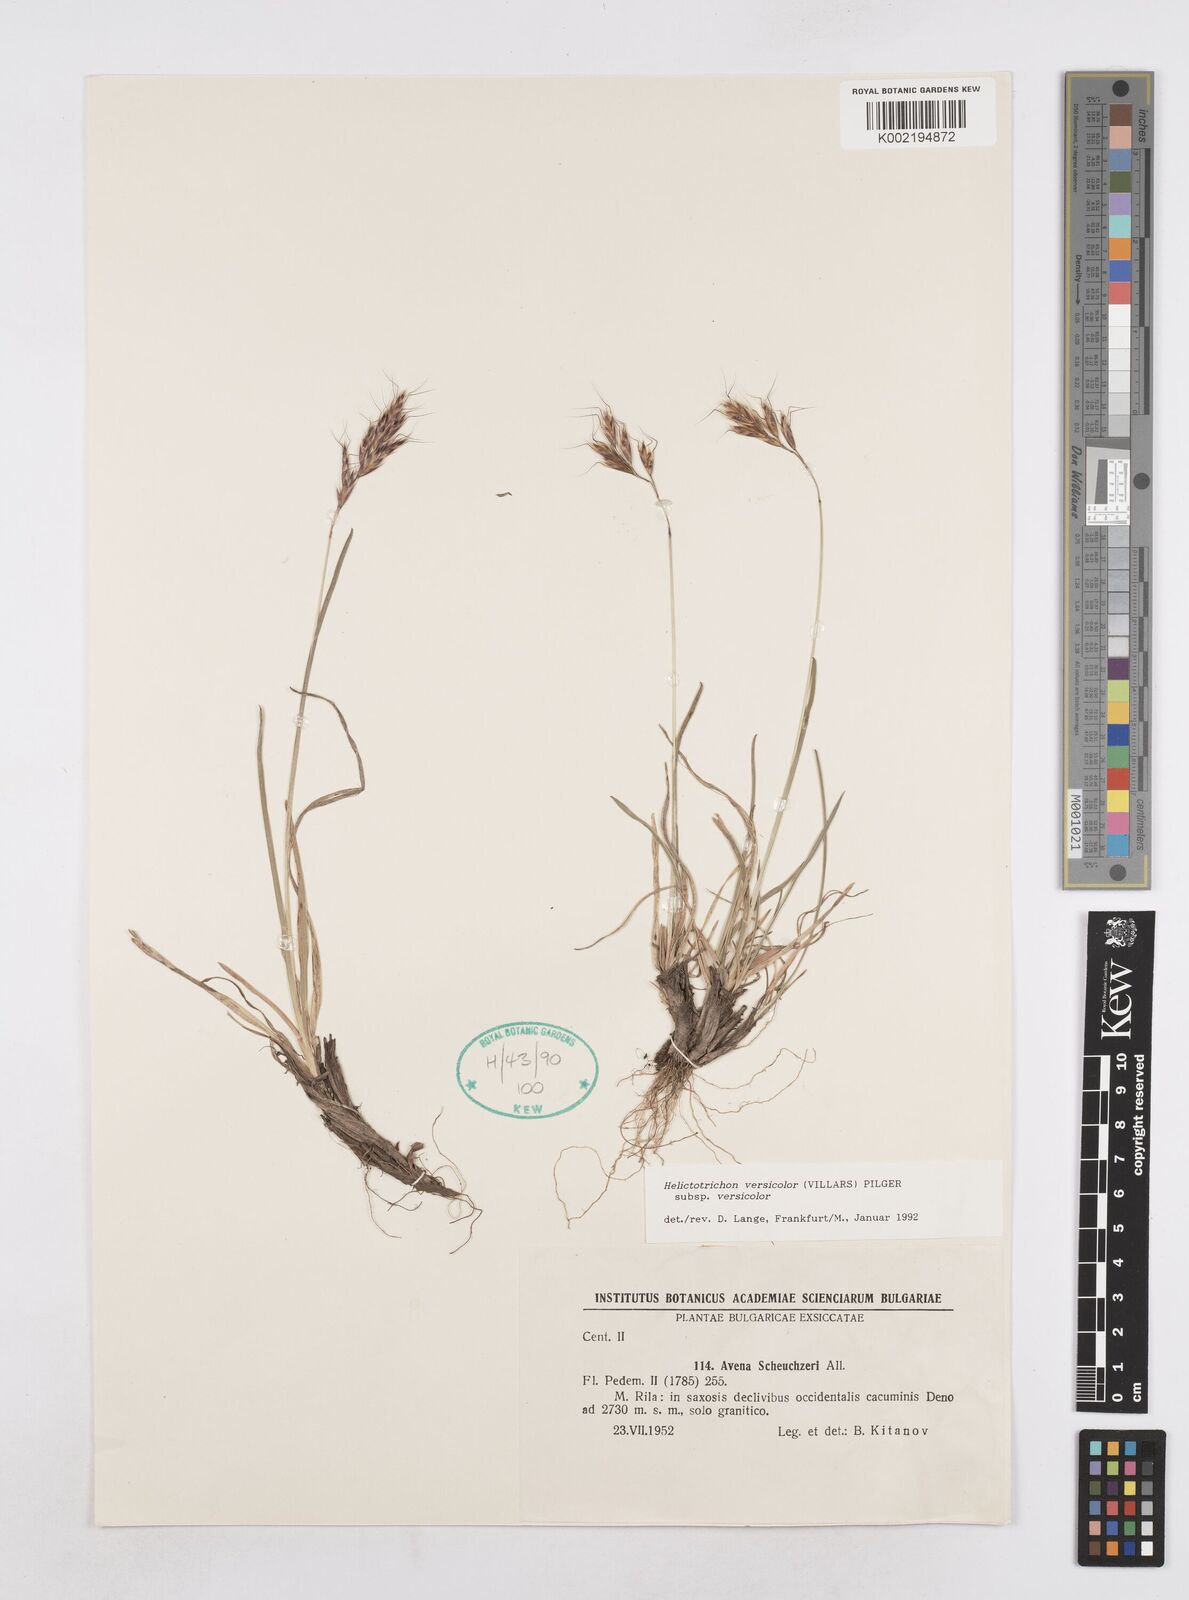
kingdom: Plantae
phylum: Tracheophyta
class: Liliopsida
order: Poales
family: Poaceae
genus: Helictochloa
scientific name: Helictochloa versicolor
